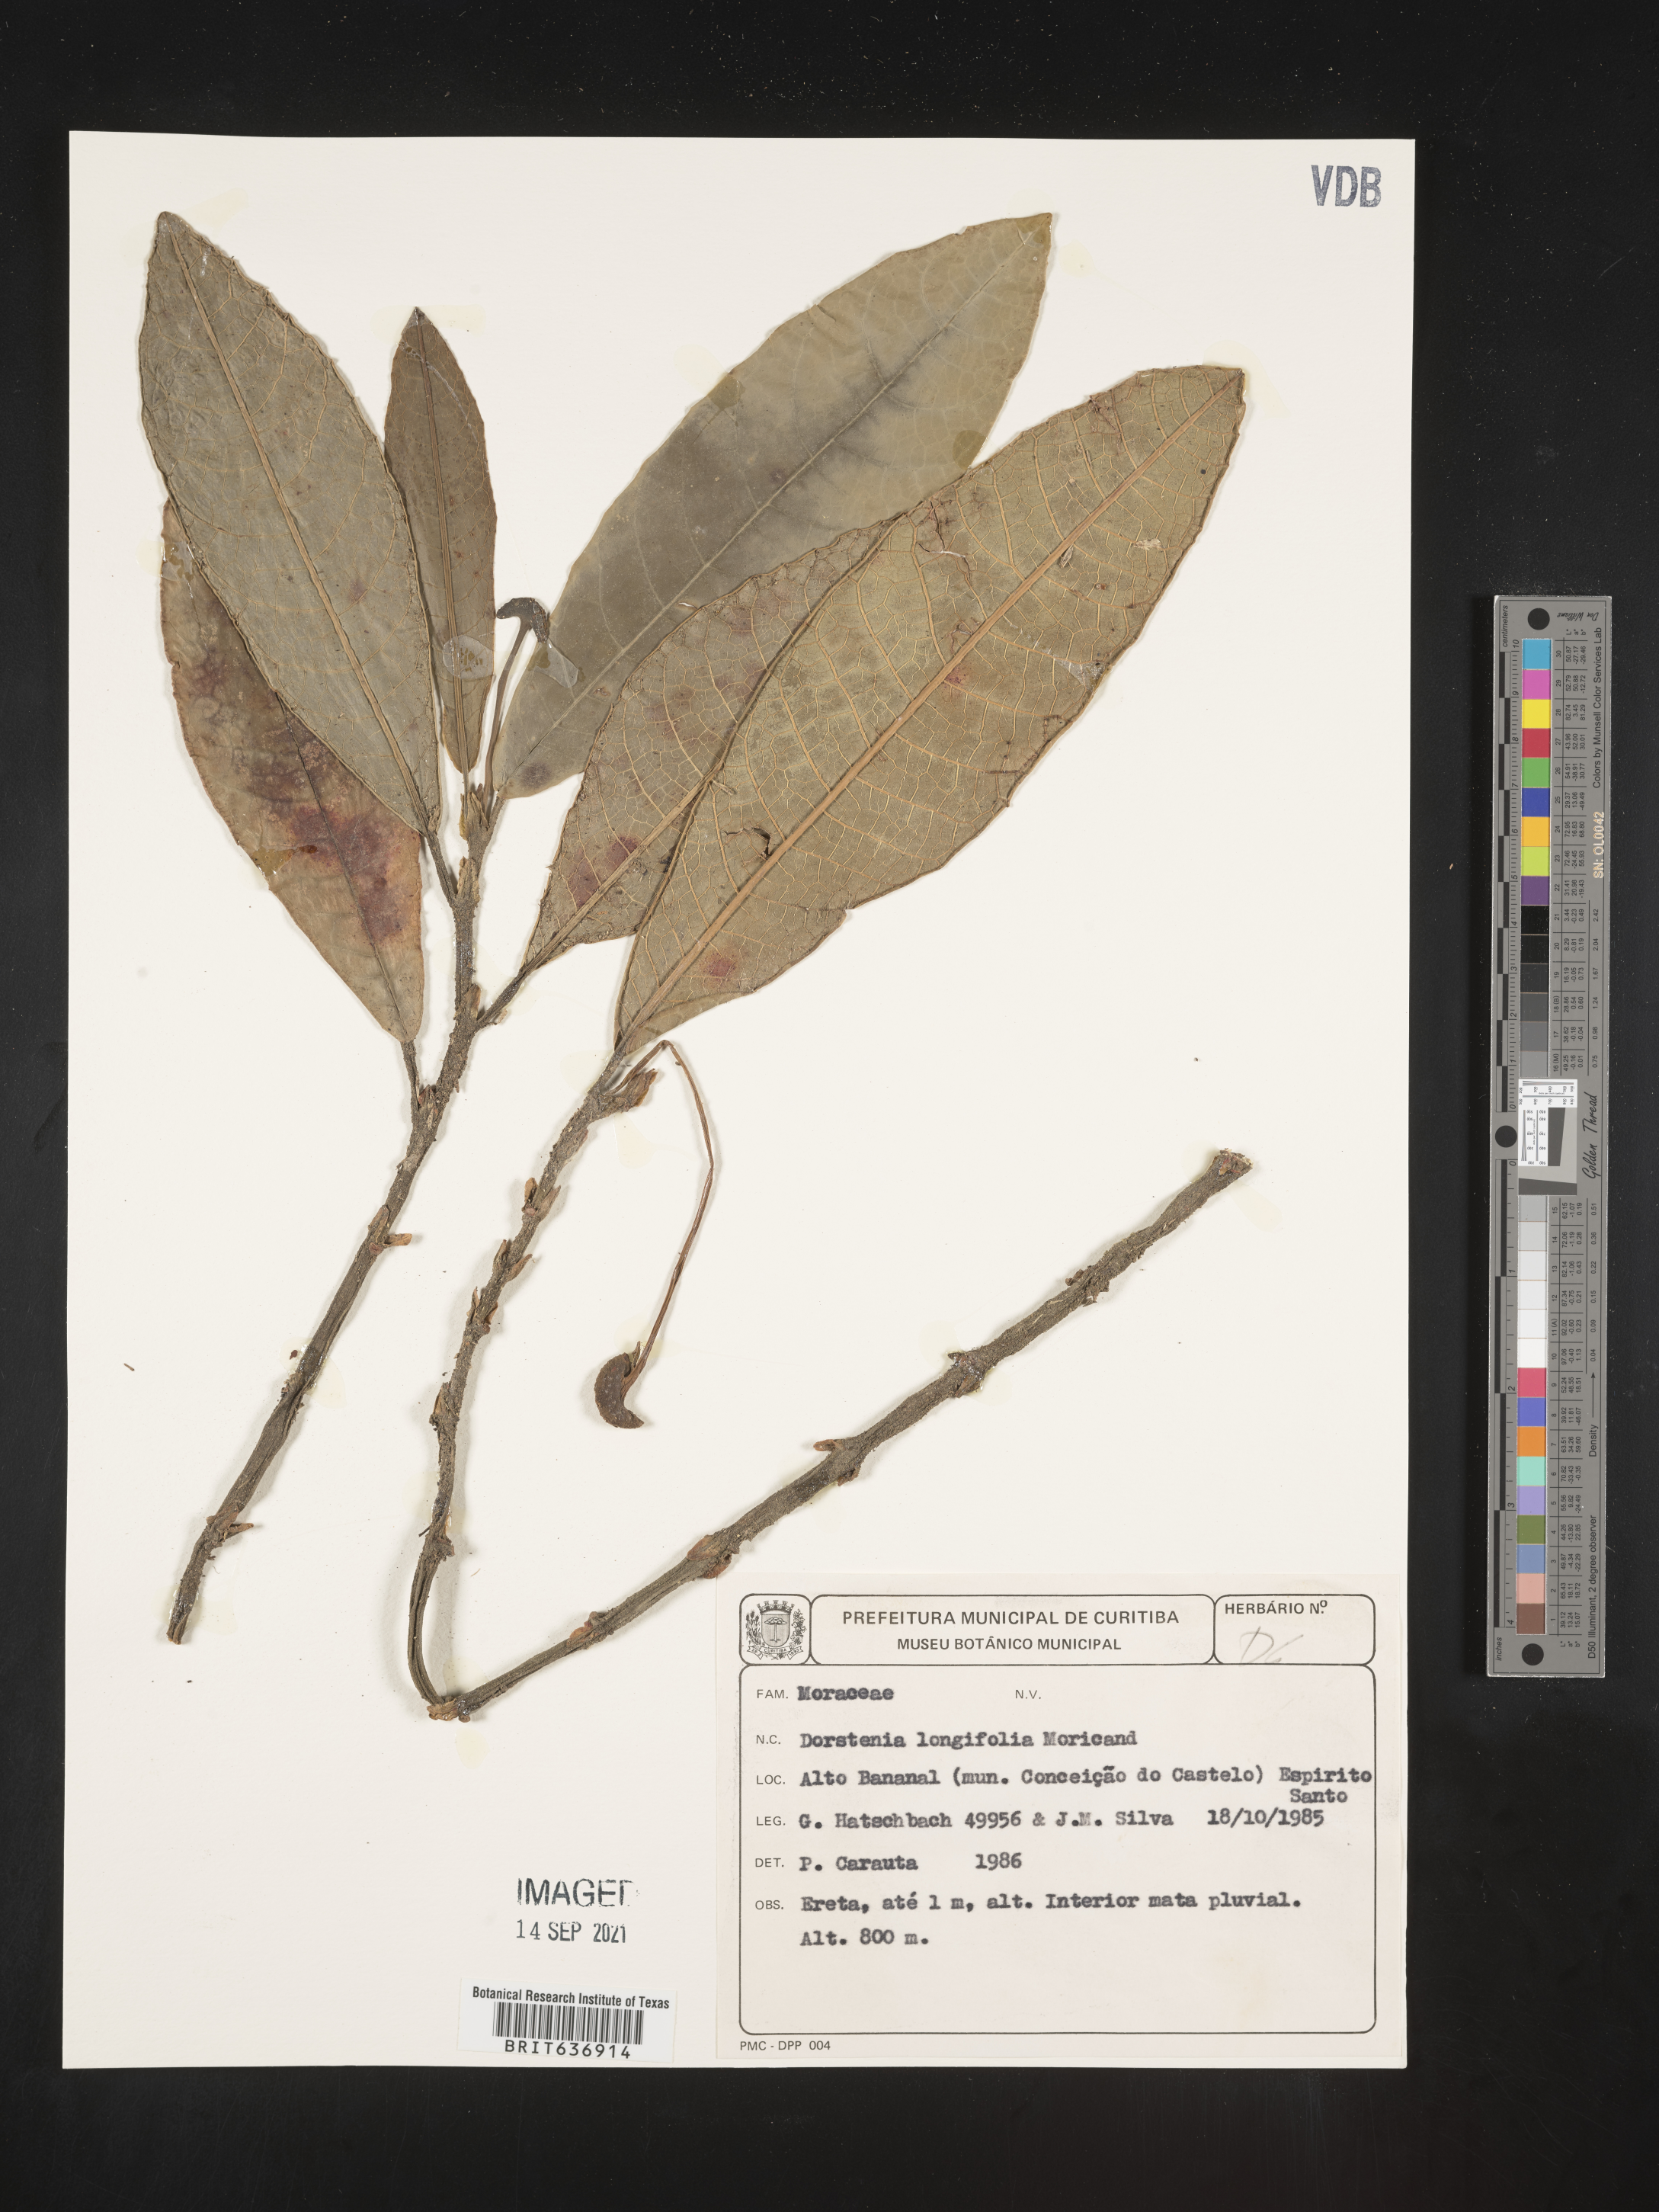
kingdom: Plantae
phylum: Tracheophyta
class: Magnoliopsida
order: Rosales
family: Moraceae
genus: Dorstenia
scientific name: Dorstenia
